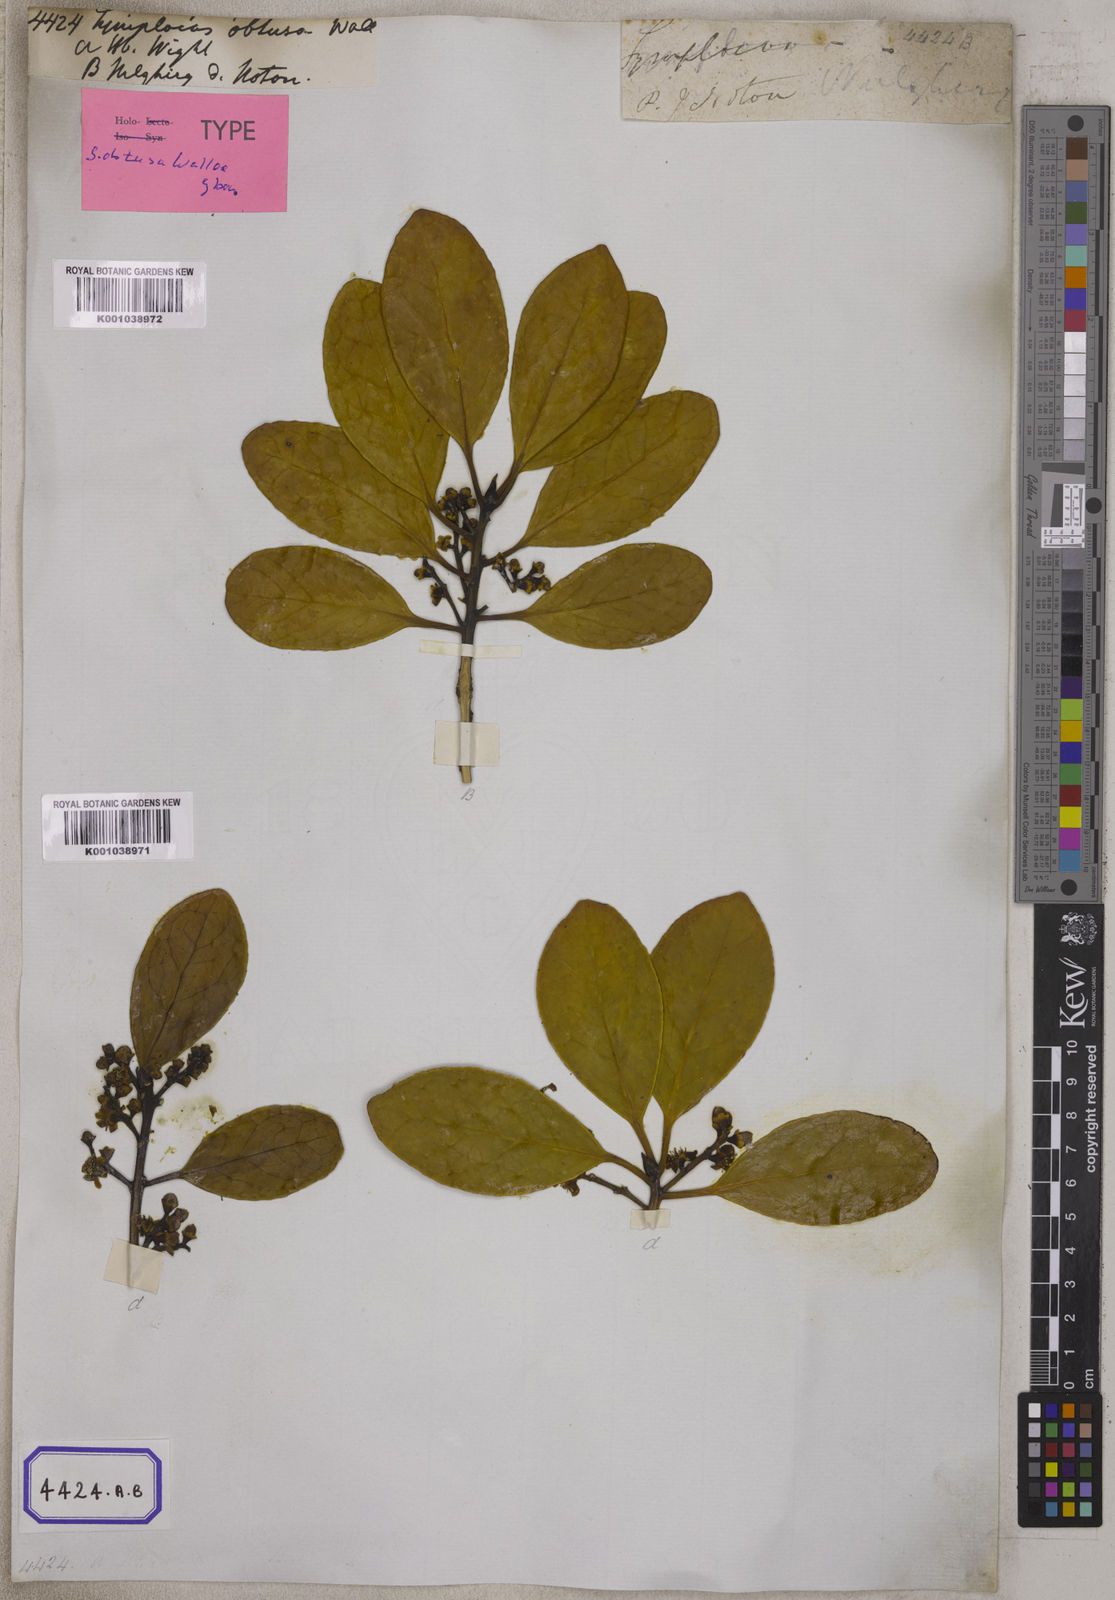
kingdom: Plantae
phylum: Tracheophyta
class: Magnoliopsida
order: Ericales
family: Symplocaceae
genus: Symplocos
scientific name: Symplocos
